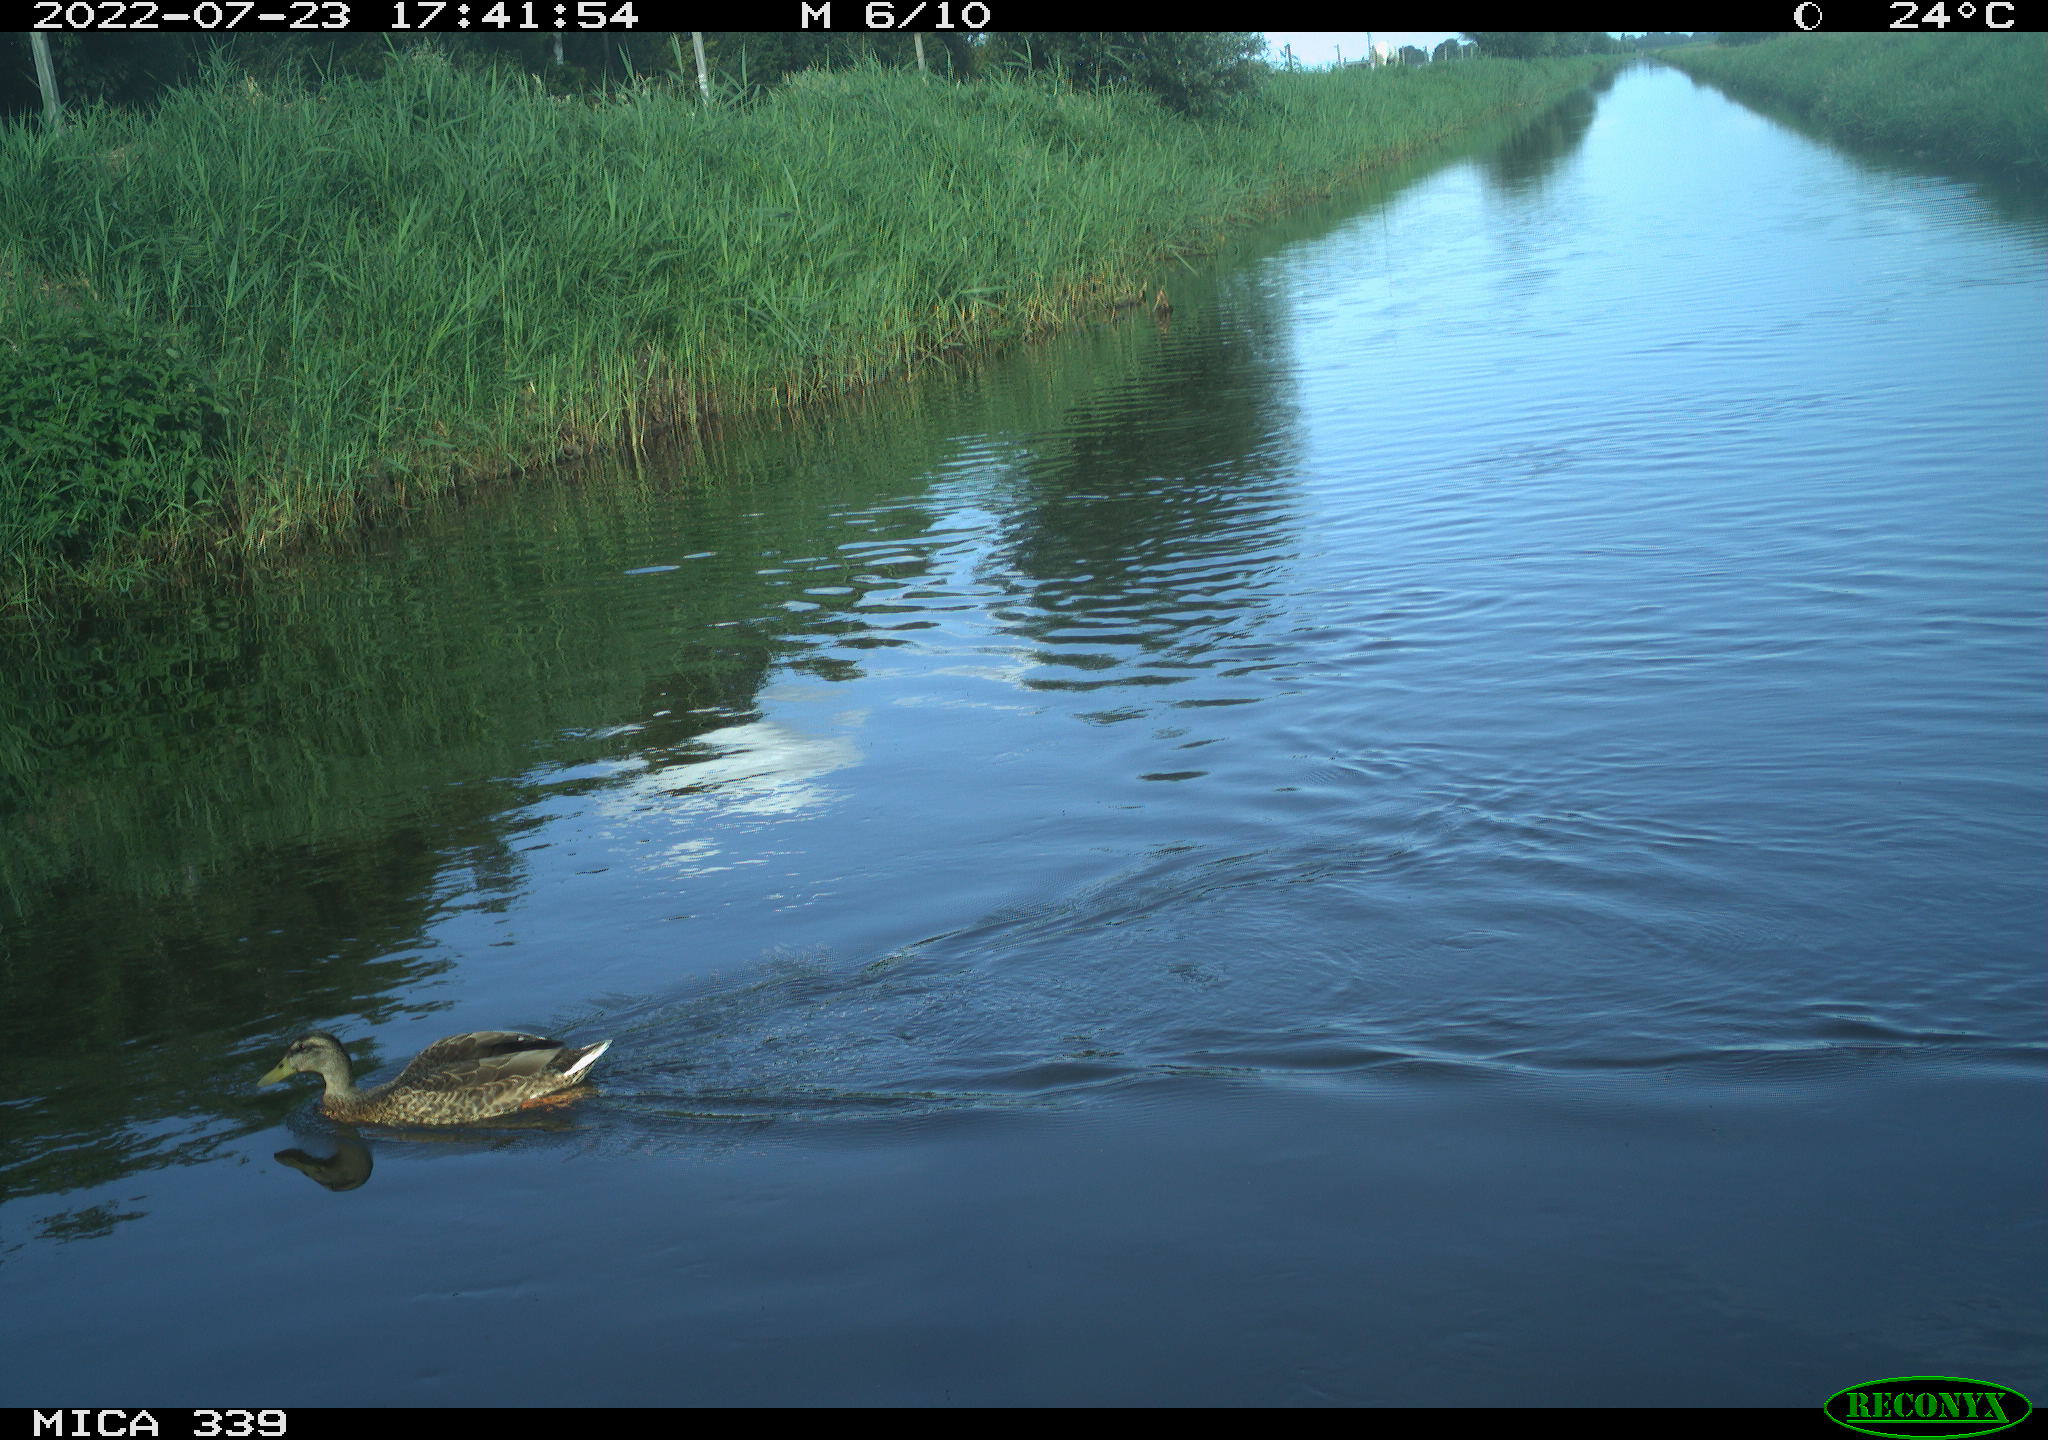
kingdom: Animalia
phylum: Chordata
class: Aves
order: Anseriformes
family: Anatidae
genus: Mareca
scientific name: Mareca strepera
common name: Gadwall
